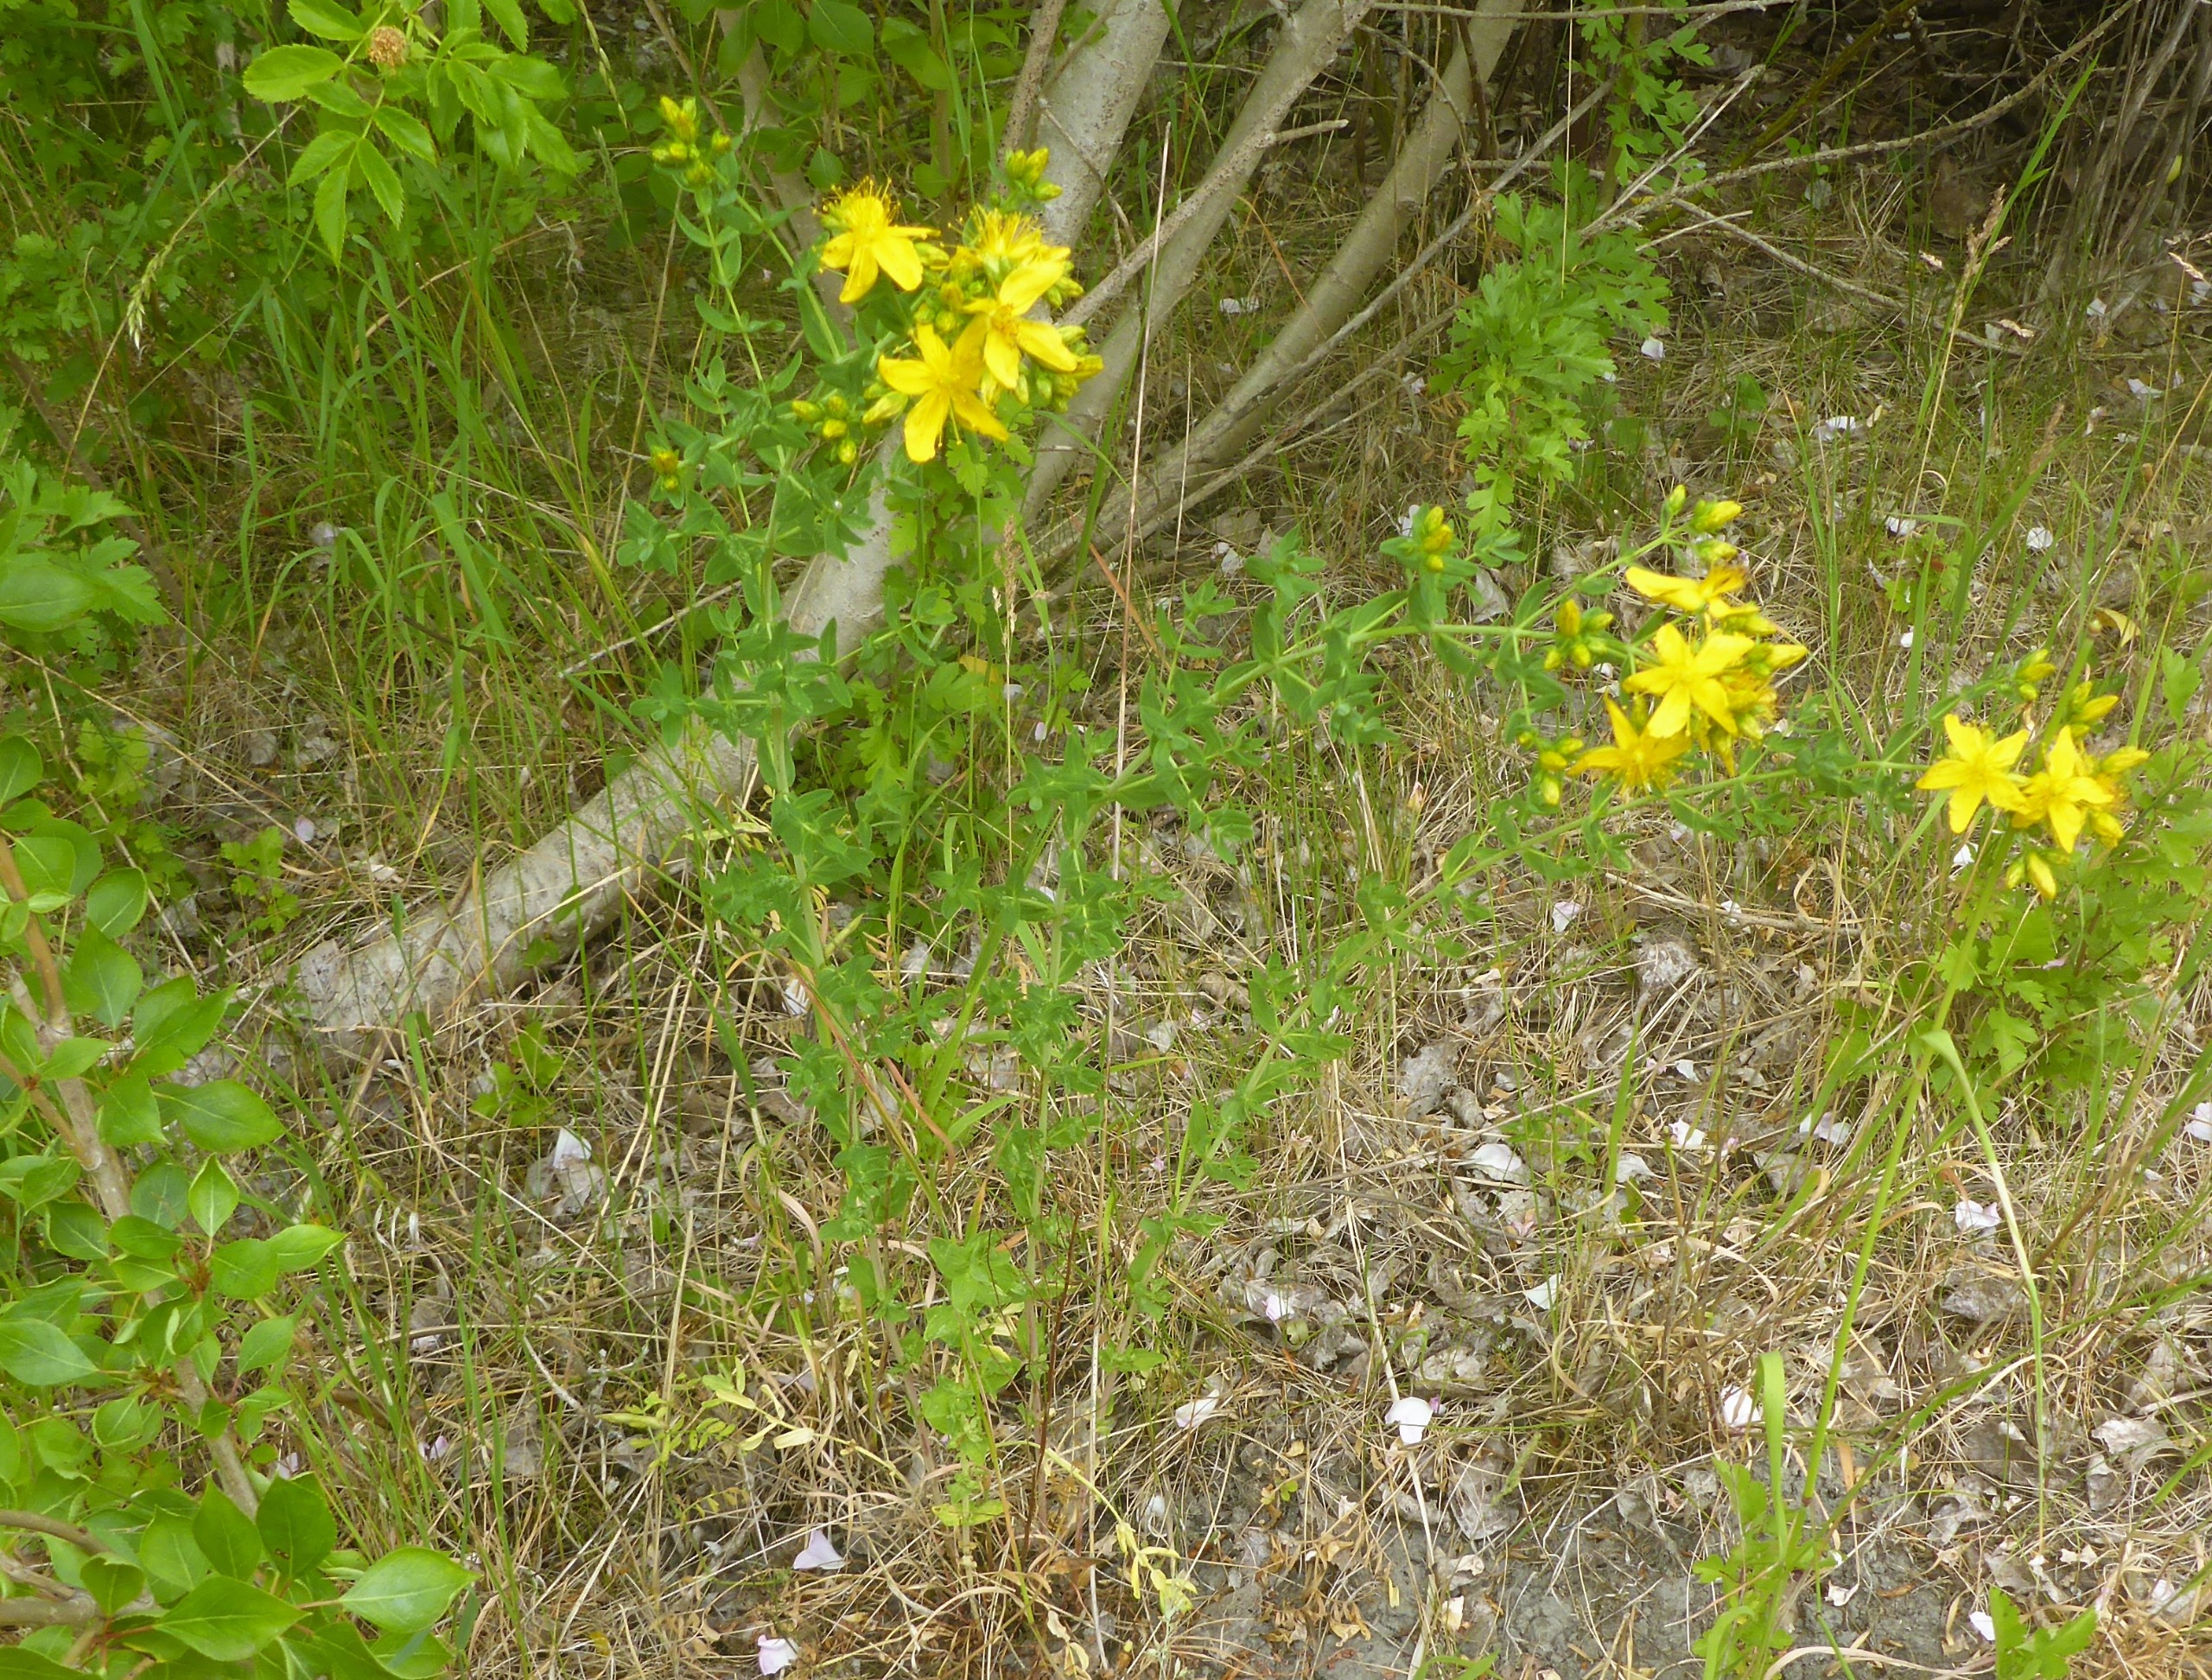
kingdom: Plantae
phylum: Tracheophyta
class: Magnoliopsida
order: Malpighiales
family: Hypericaceae
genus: Hypericum
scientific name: Hypericum perforatum
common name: Prikbladet perikon
